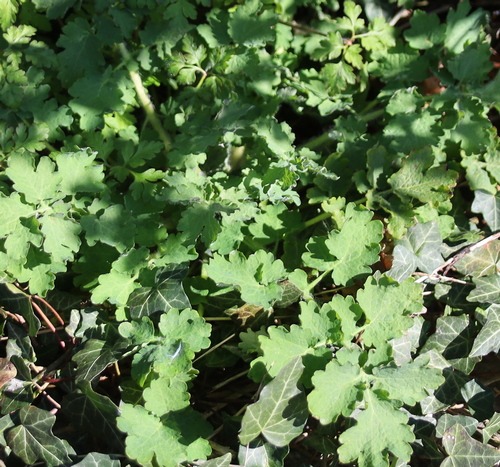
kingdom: Plantae
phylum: Tracheophyta
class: Magnoliopsida
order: Ranunculales
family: Papaveraceae
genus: Chelidonium
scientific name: Chelidonium majus
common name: Svaleurt
